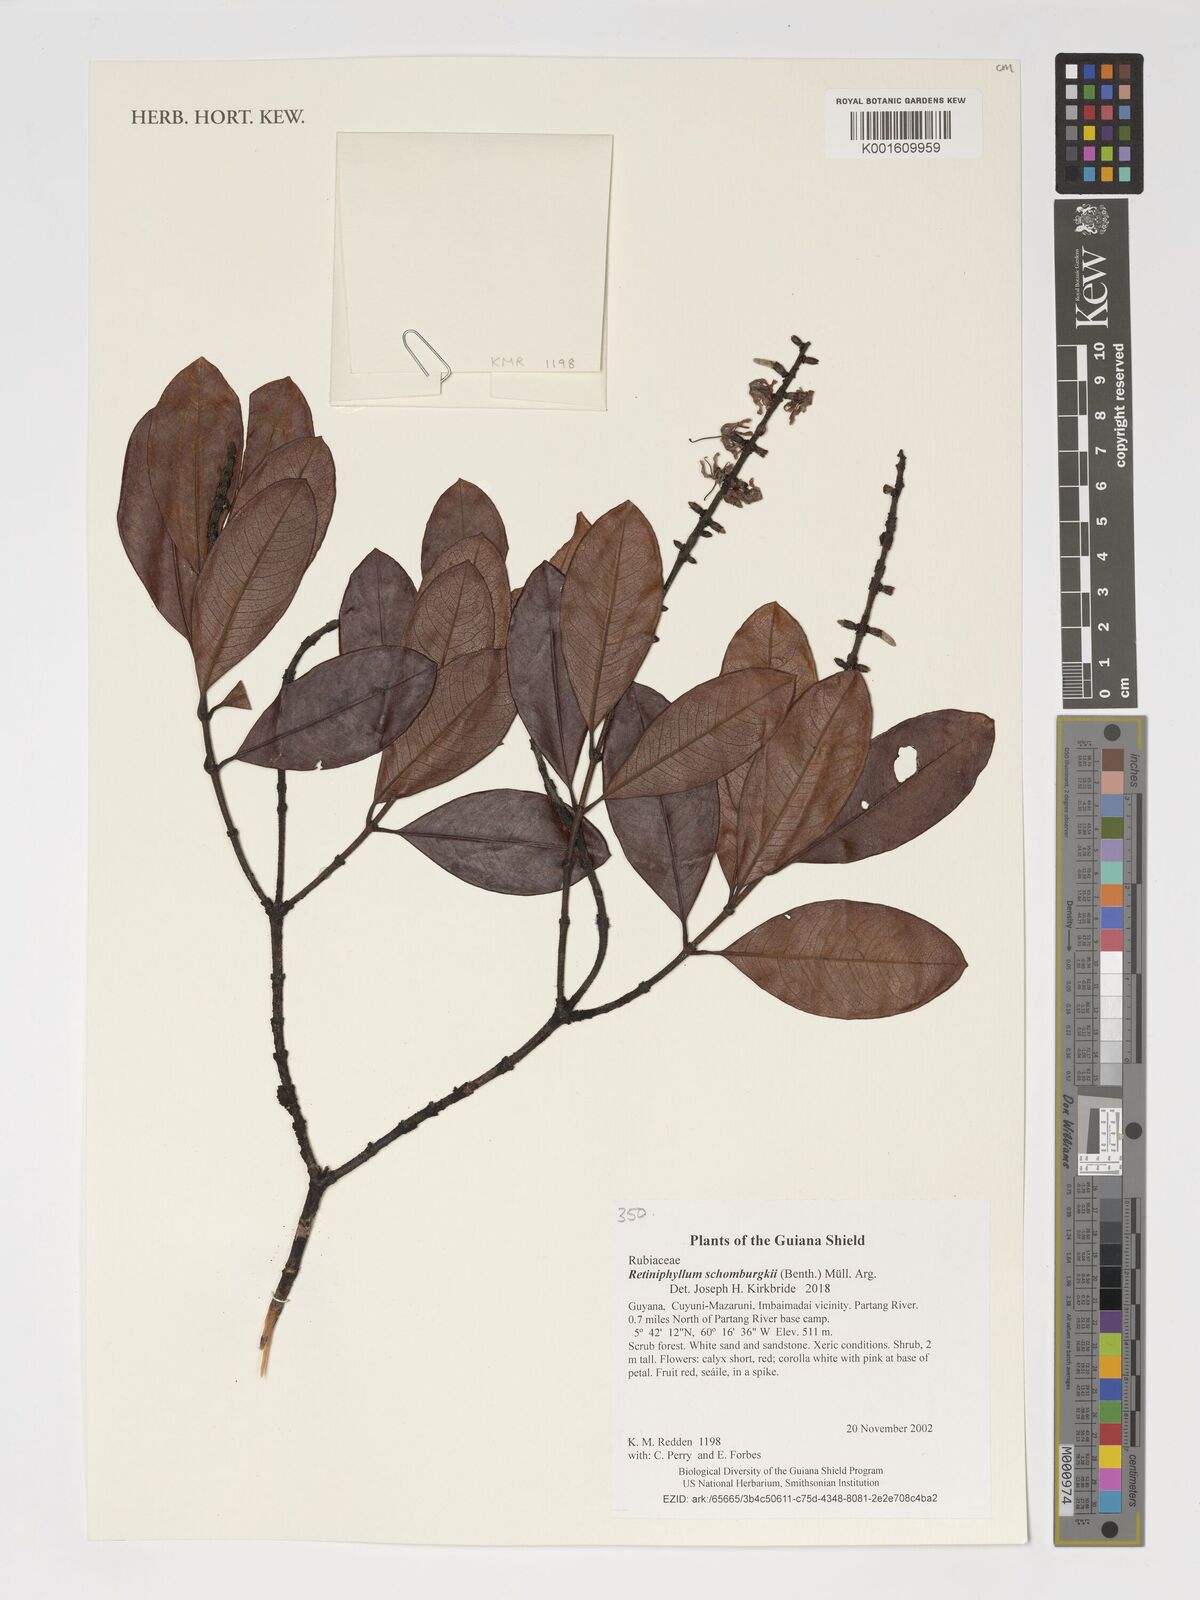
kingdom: Plantae
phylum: Tracheophyta
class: Magnoliopsida
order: Gentianales
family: Rubiaceae
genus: Retiniphyllum
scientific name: Retiniphyllum schomburgkii
